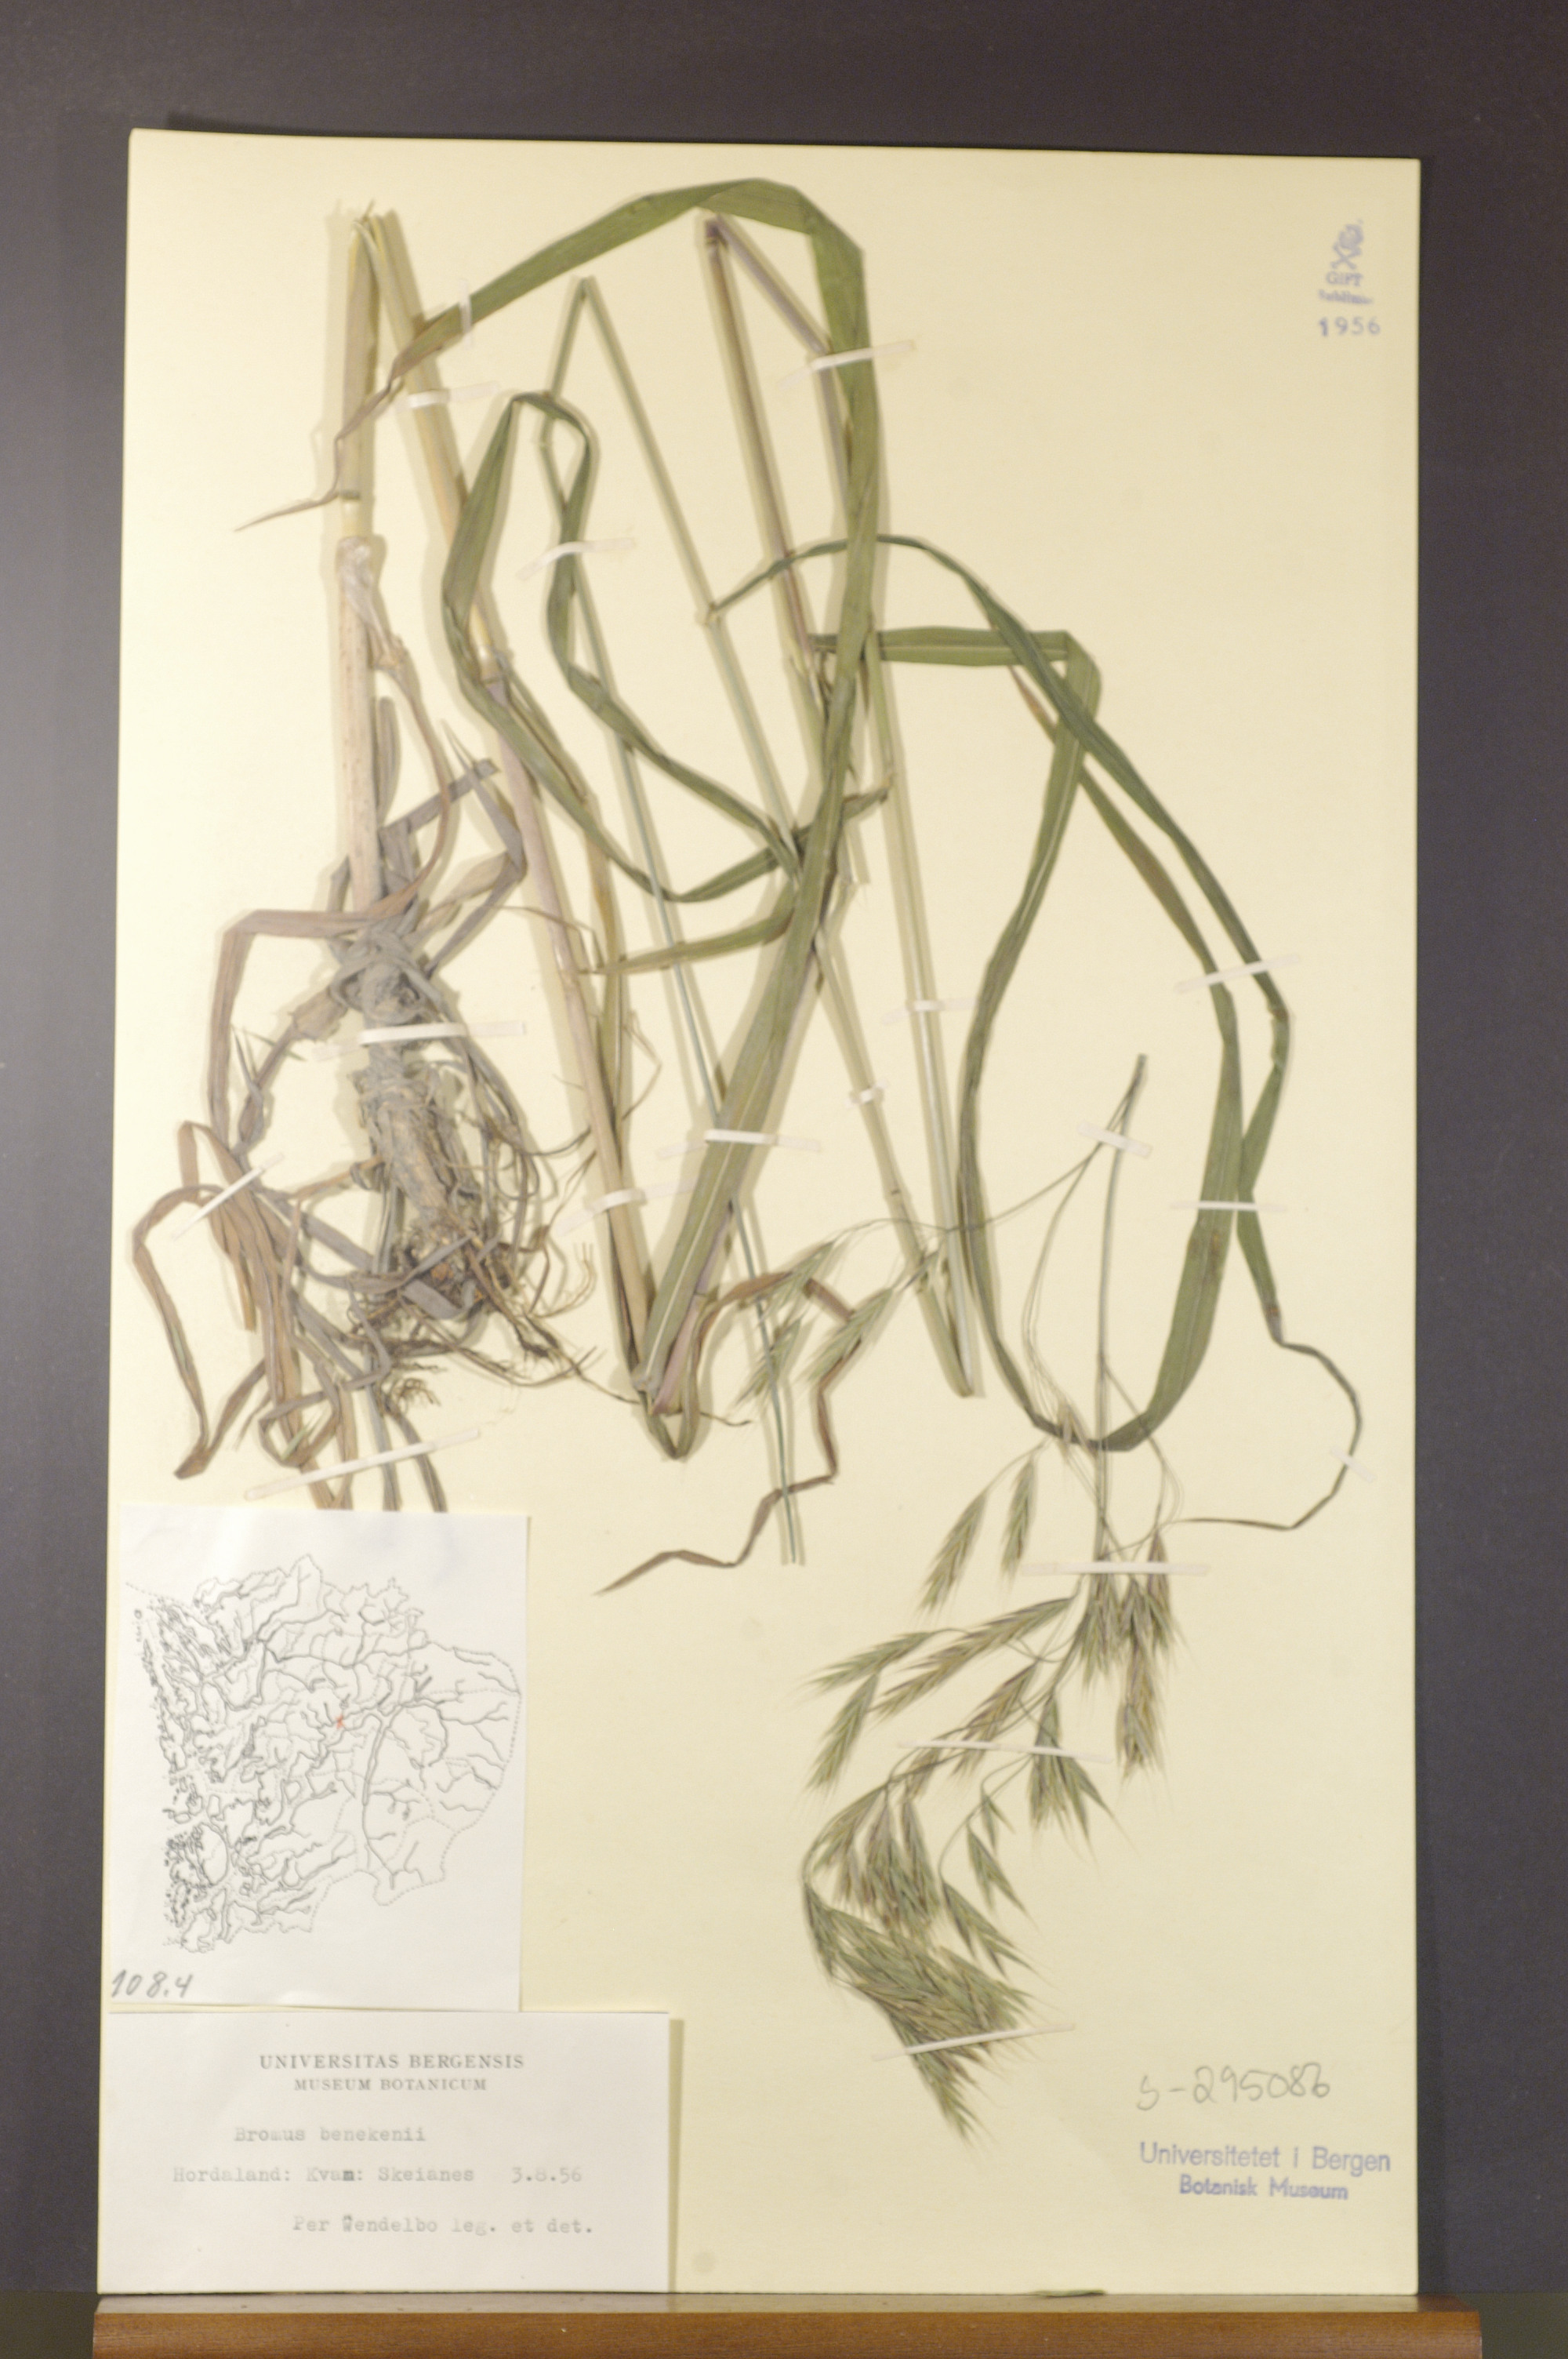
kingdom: Plantae
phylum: Tracheophyta
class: Liliopsida
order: Poales
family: Poaceae
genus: Bromus
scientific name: Bromus benekenii
